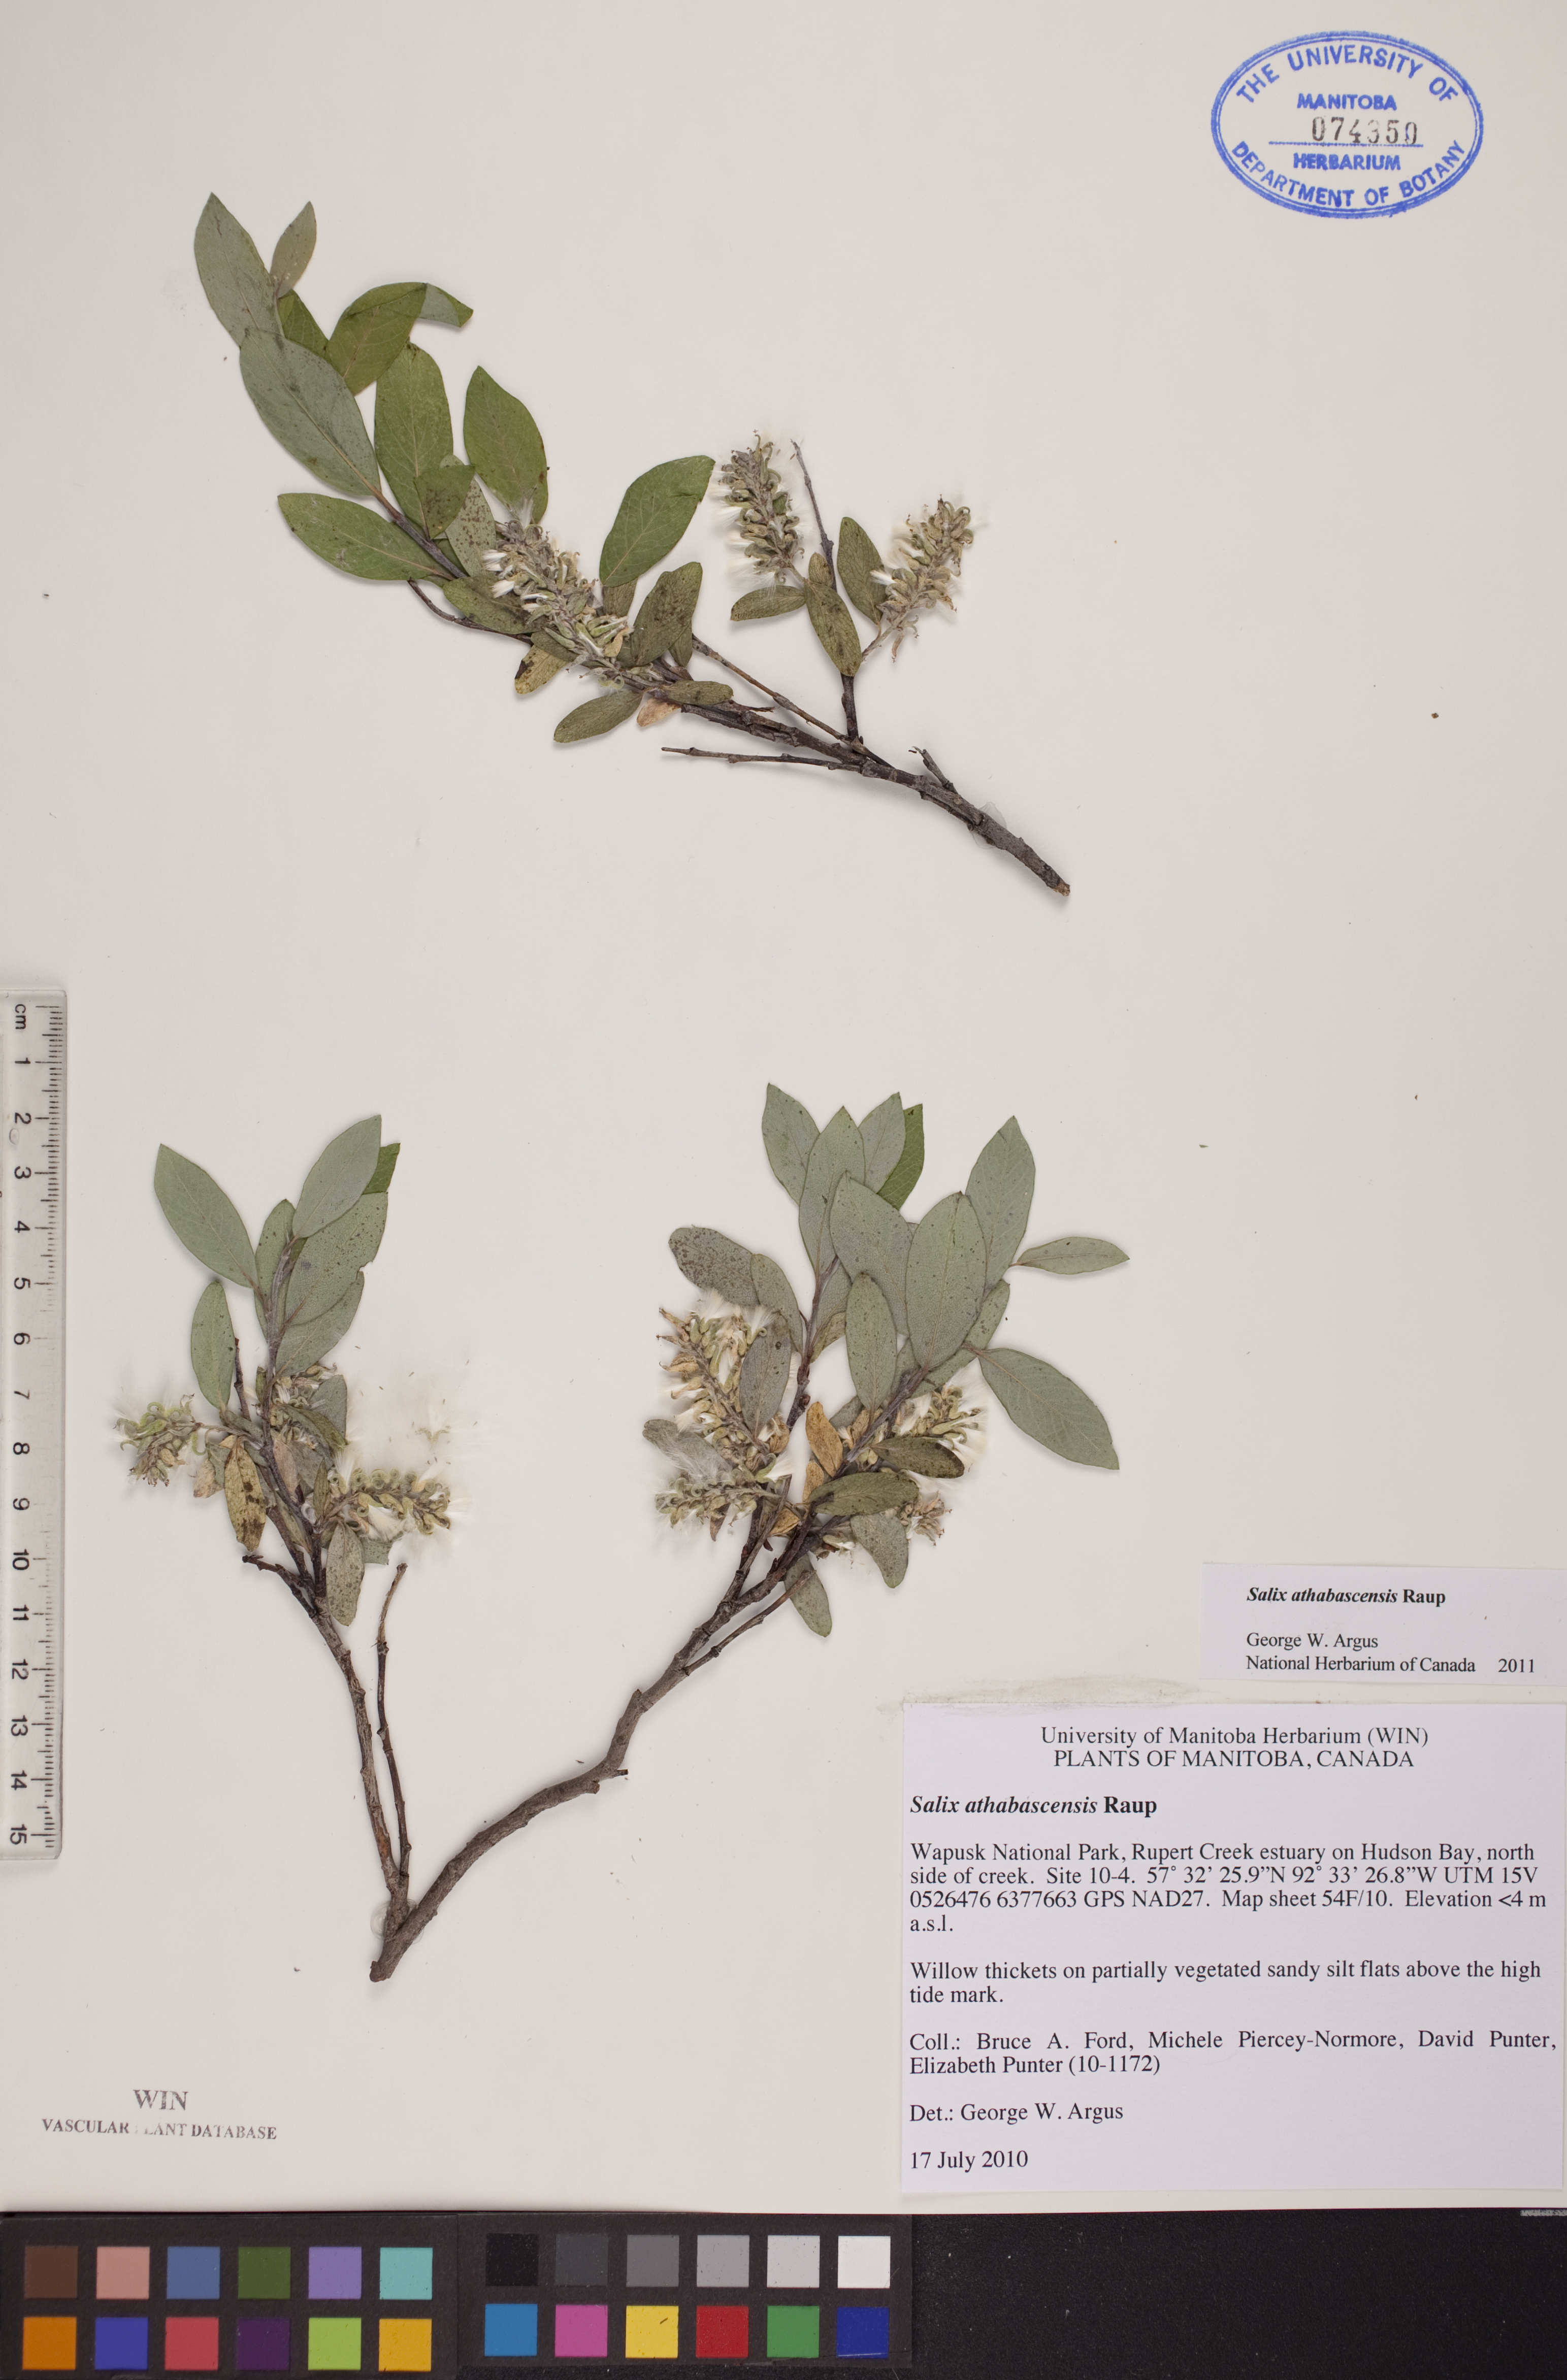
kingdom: Plantae
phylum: Tracheophyta
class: Magnoliopsida
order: Malpighiales
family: Salicaceae
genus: Salix
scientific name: Salix athabascensis
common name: Athabasca willow
